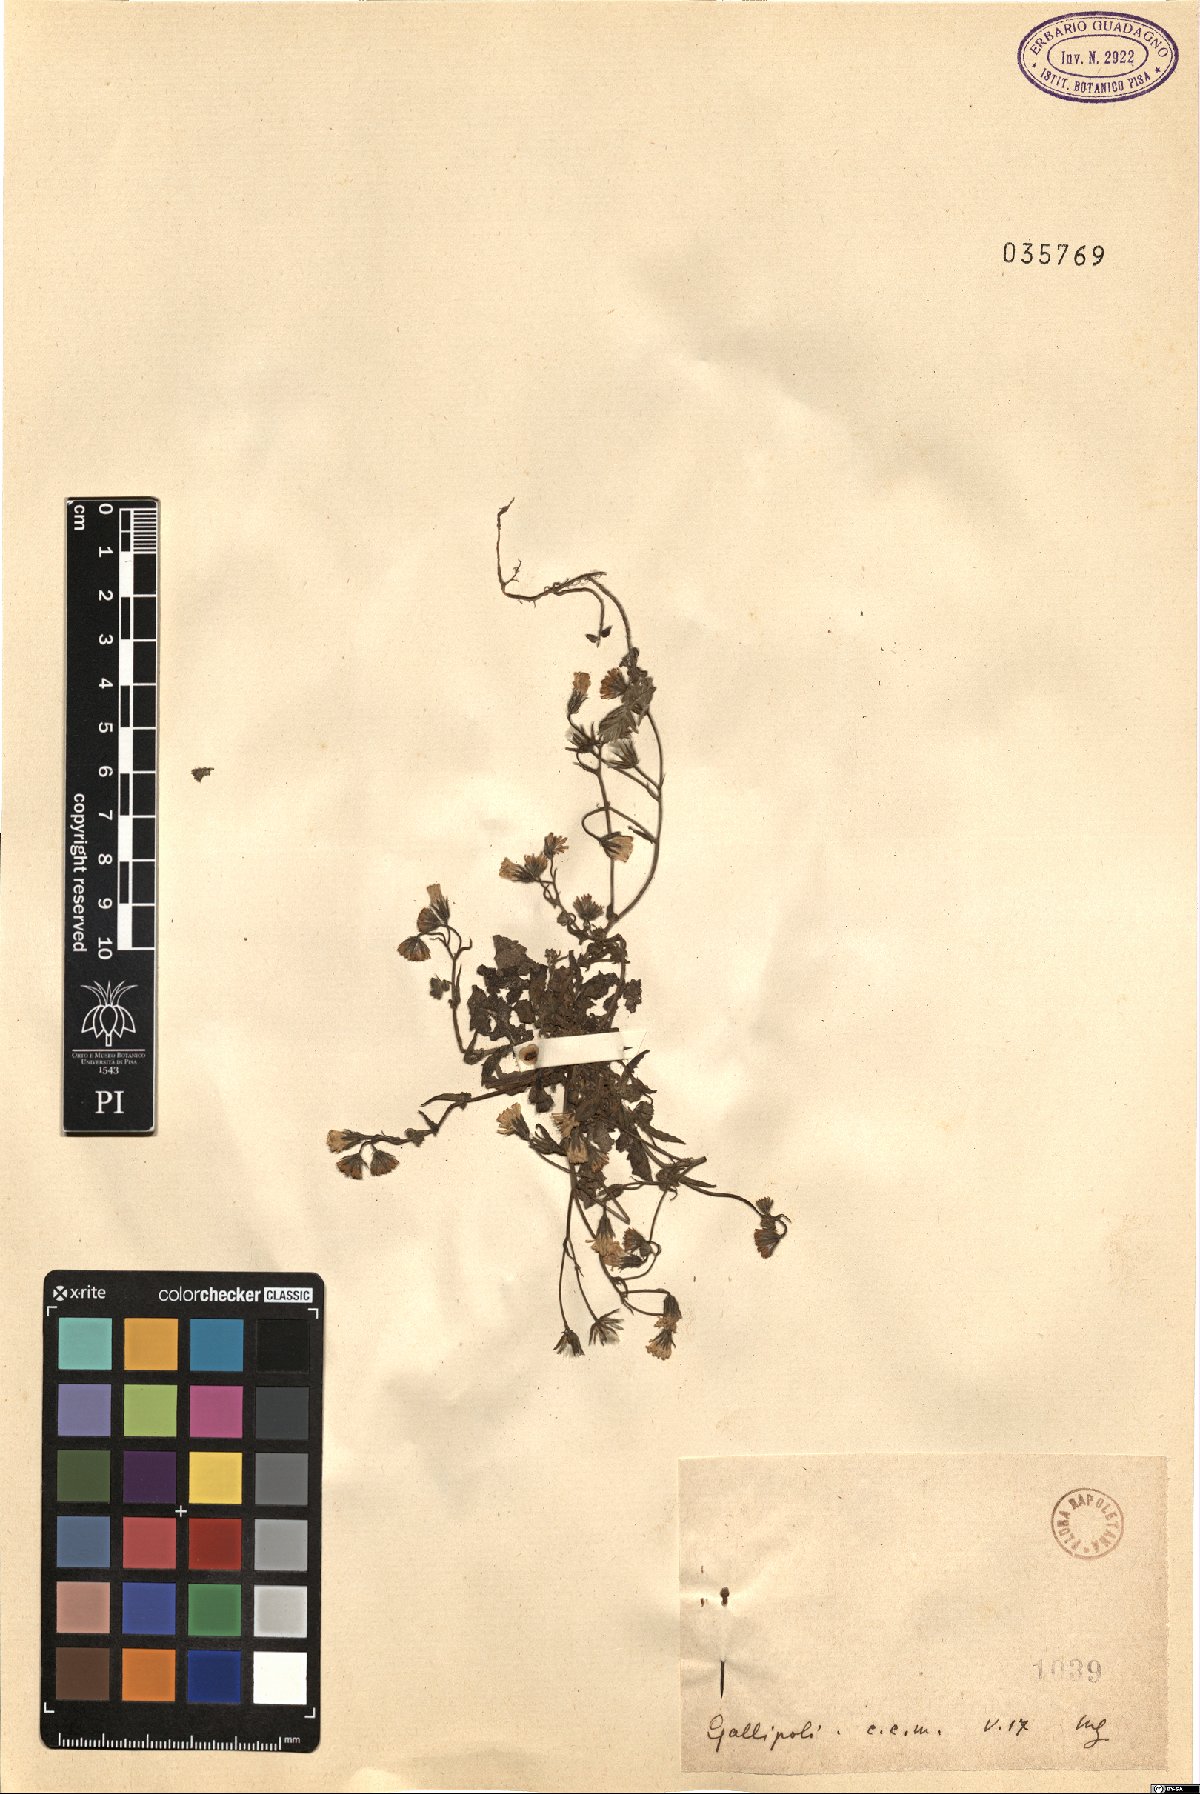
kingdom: Plantae
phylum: Tracheophyta
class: Magnoliopsida
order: Asterales
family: Asteraceae
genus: Crepis
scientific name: Crepis
